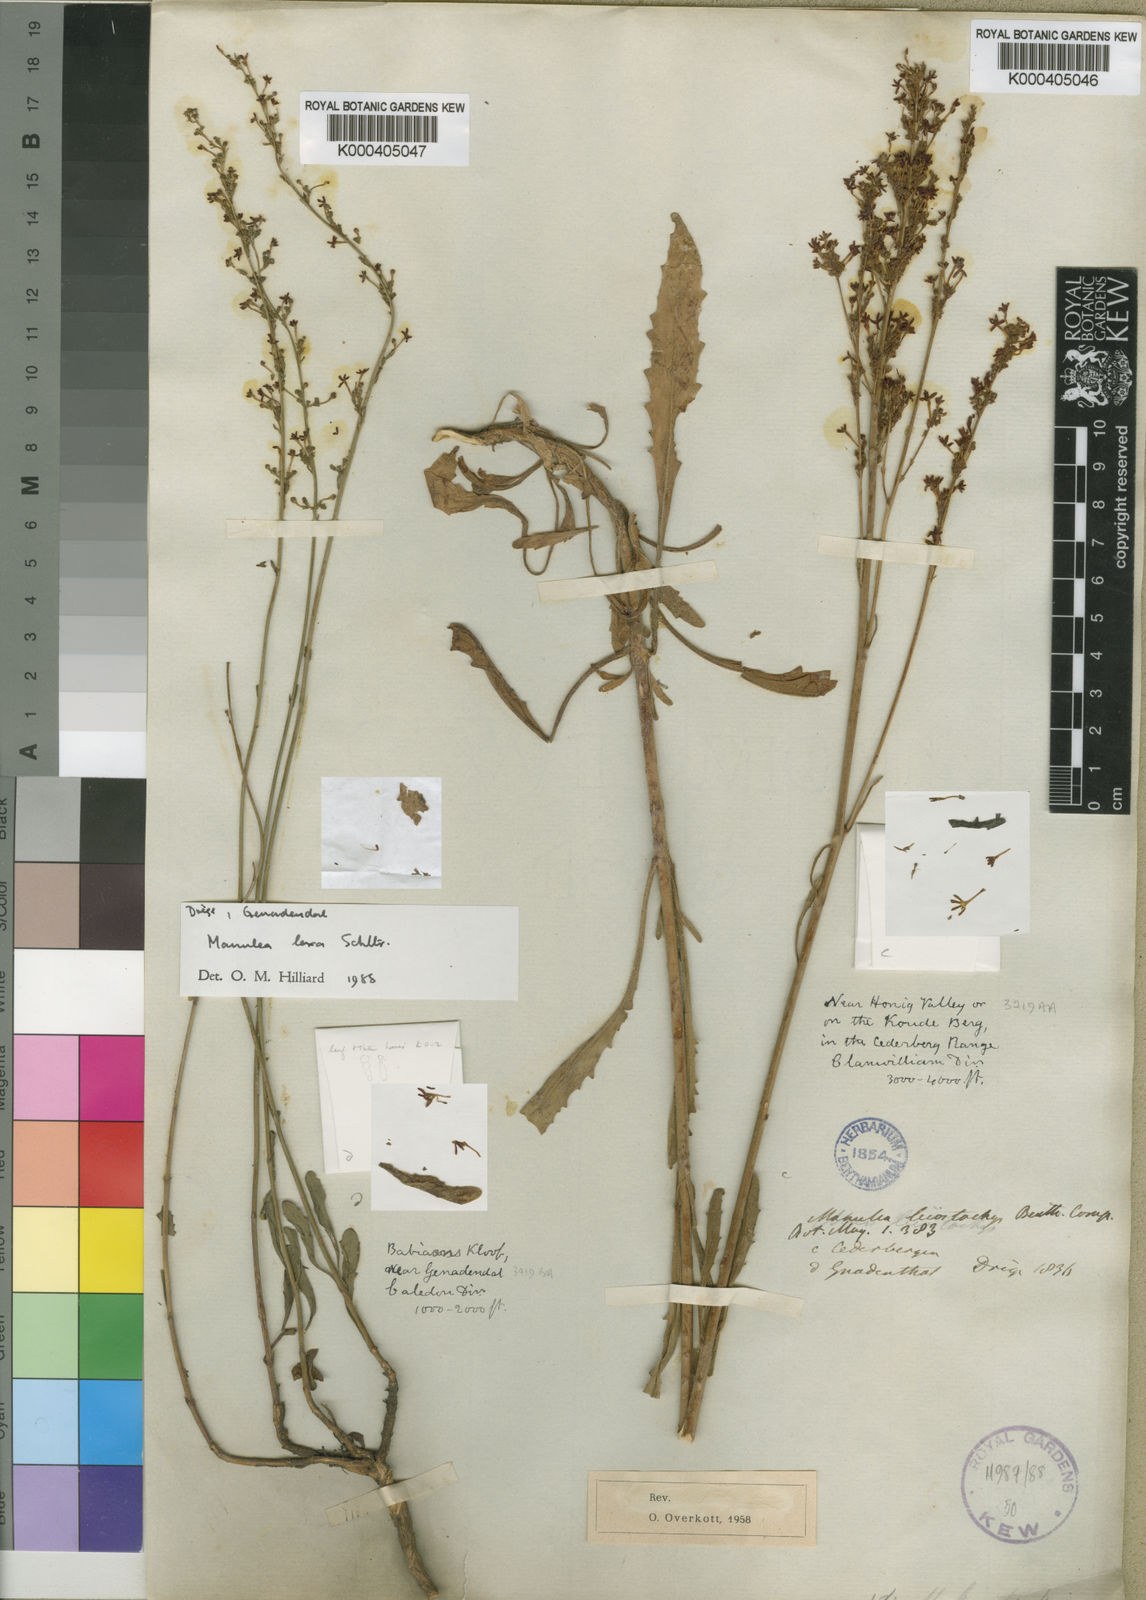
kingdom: Plantae
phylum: Tracheophyta
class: Magnoliopsida
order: Lamiales
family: Scrophulariaceae
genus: Manulea
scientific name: Manulea leiostachys
